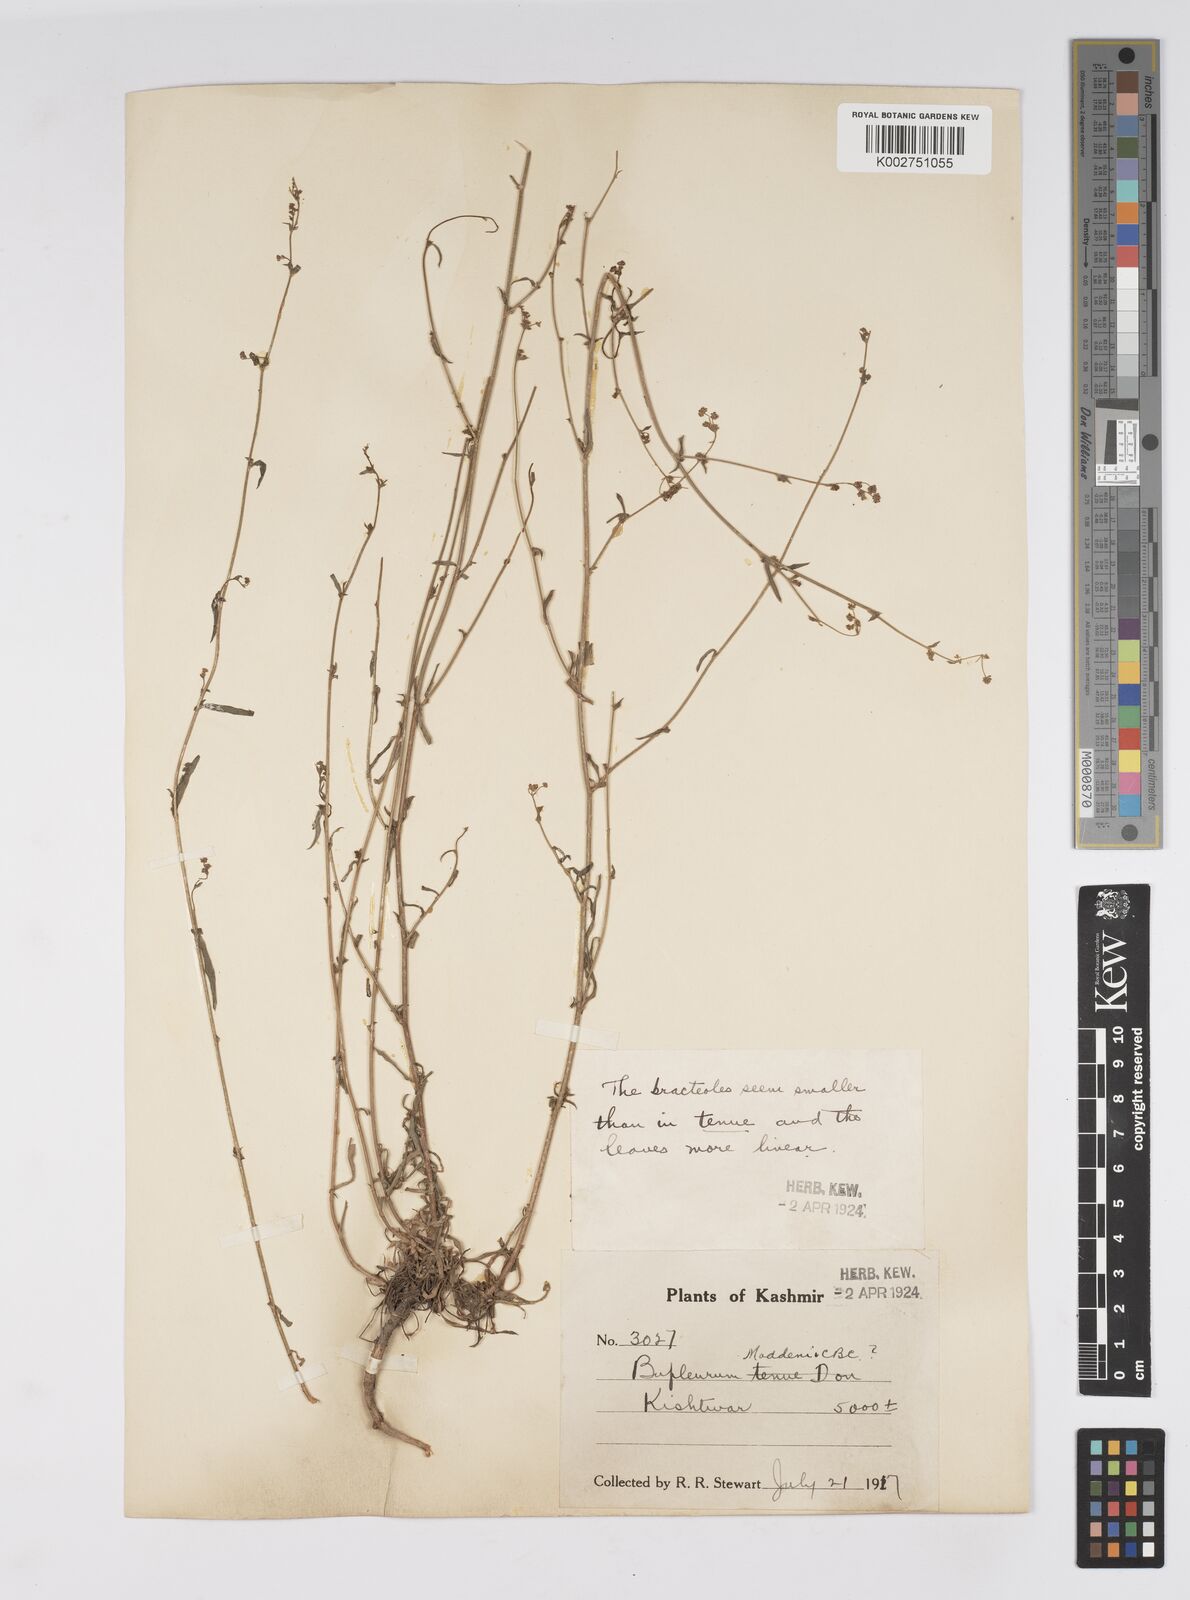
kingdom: Plantae
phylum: Tracheophyta
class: Magnoliopsida
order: Apiales
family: Apiaceae
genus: Bupleurum
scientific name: Bupleurum maddenii
